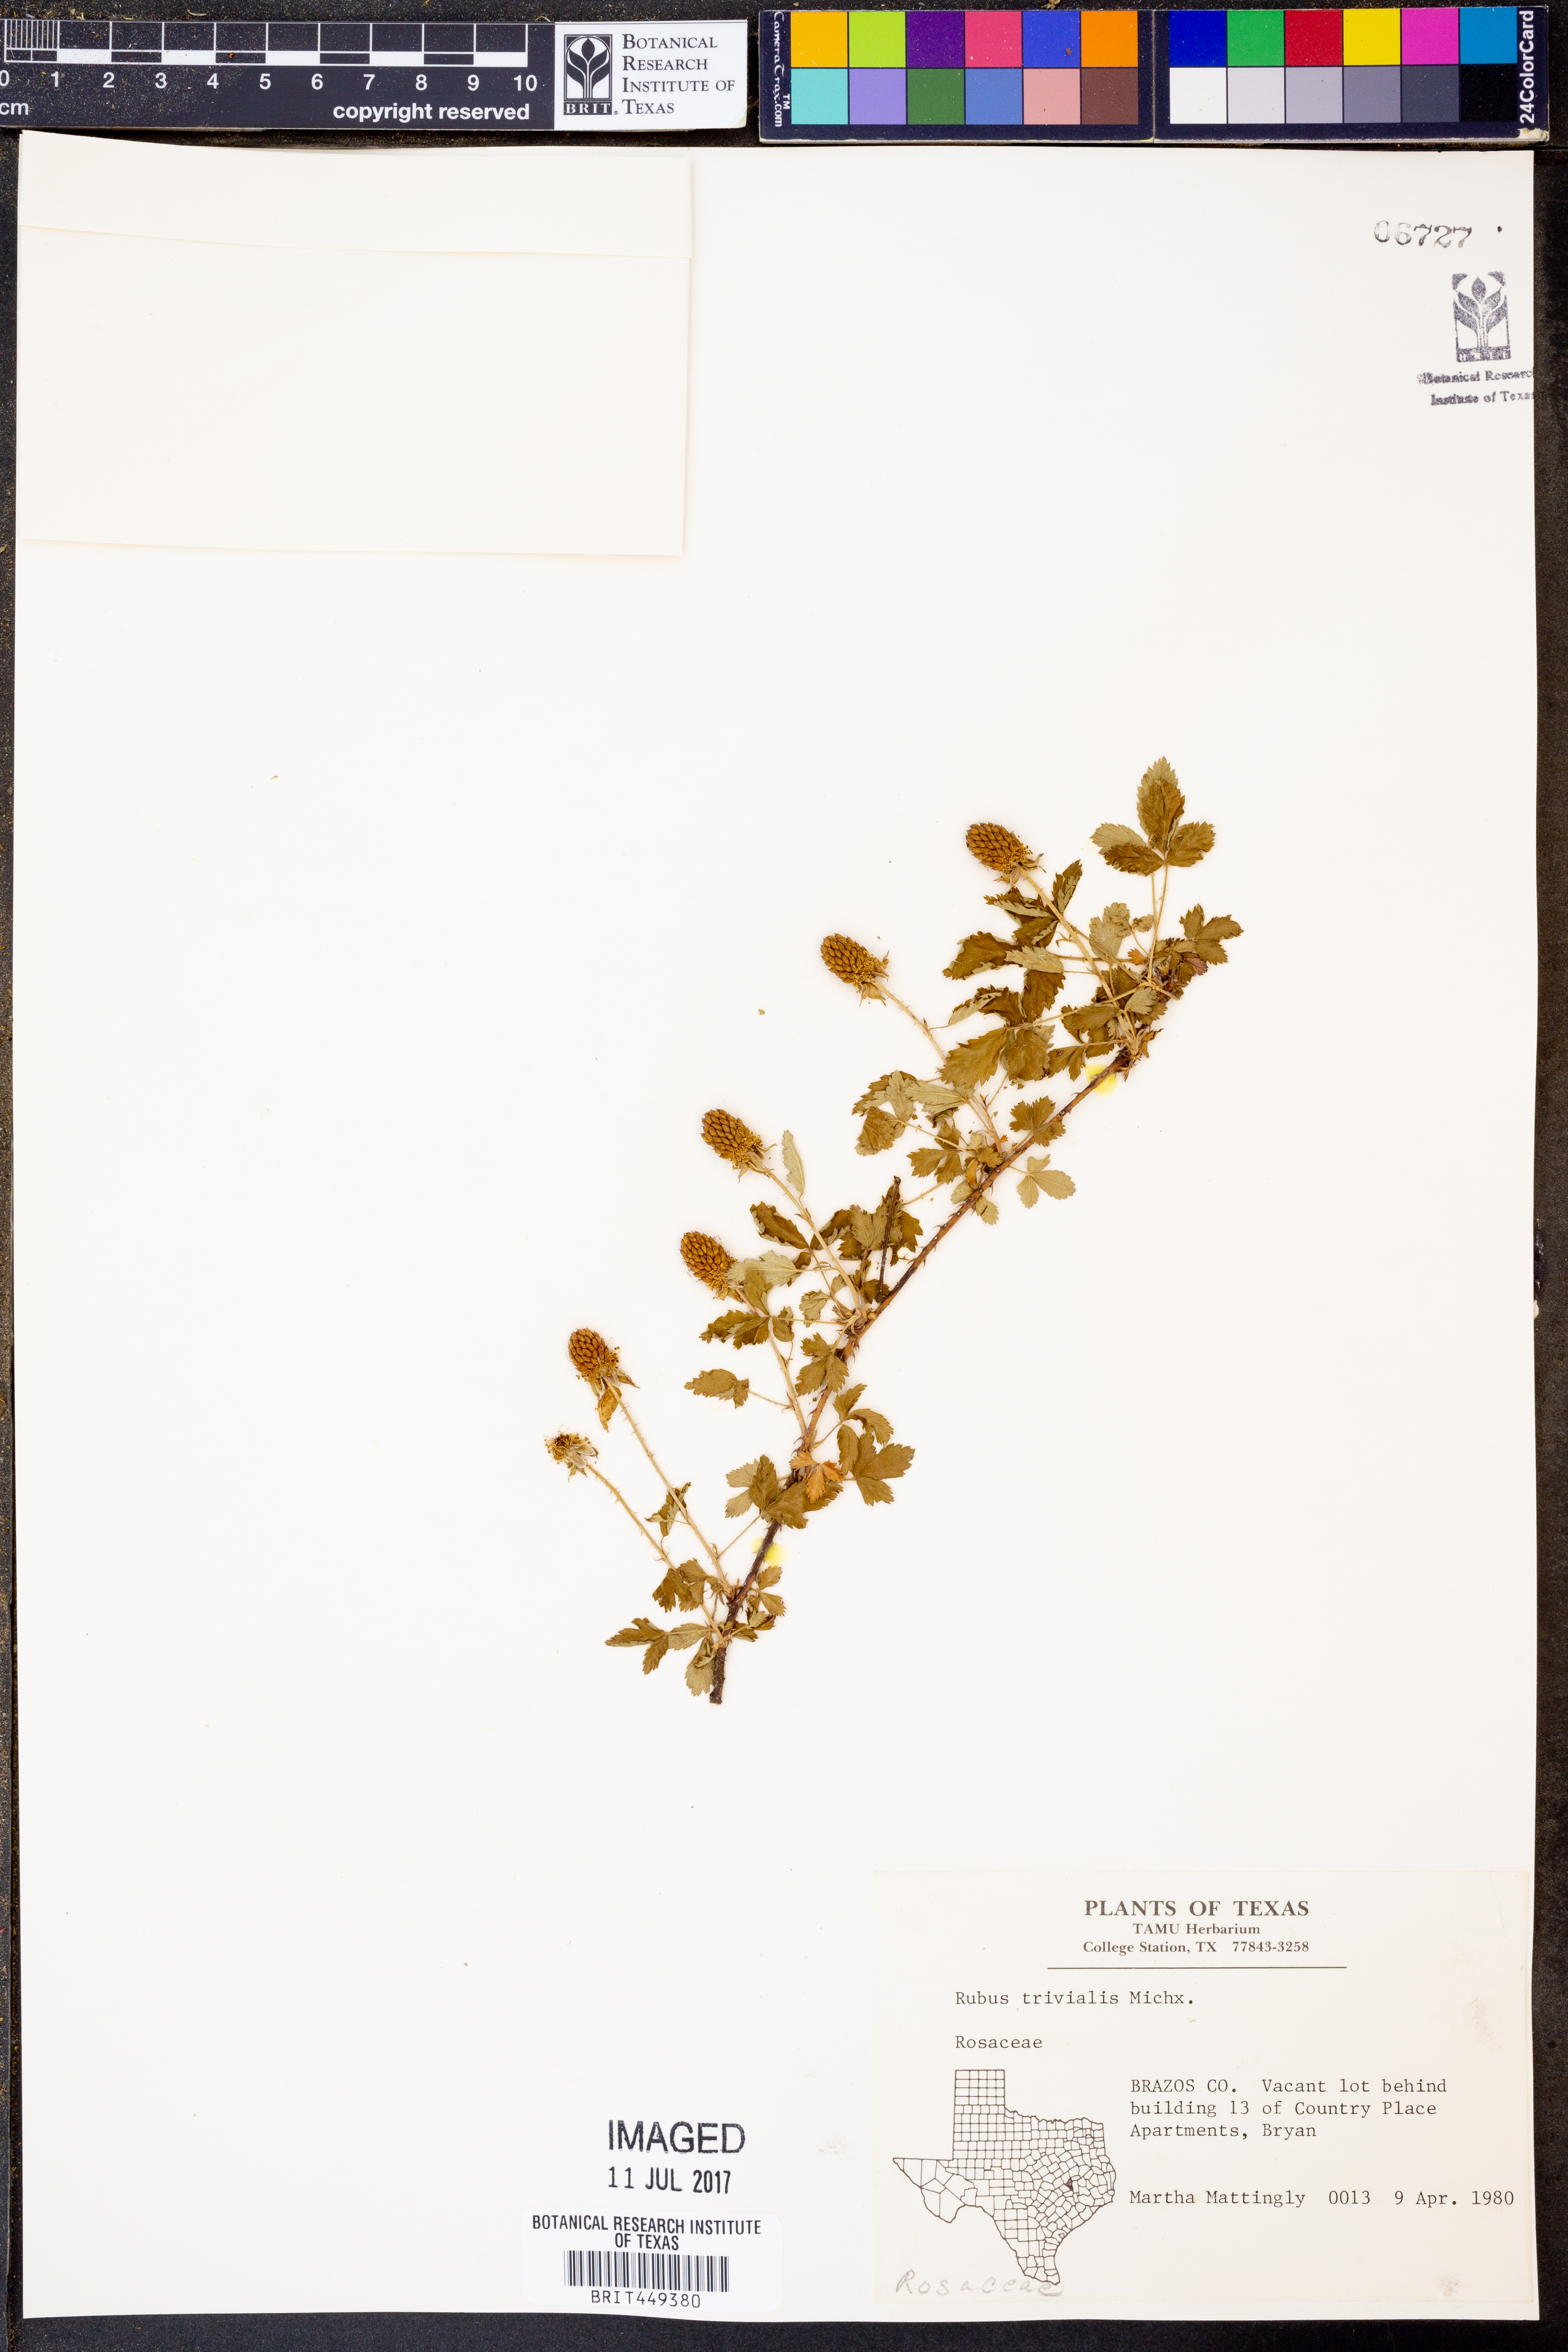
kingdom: Plantae
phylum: Tracheophyta
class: Magnoliopsida
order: Rosales
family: Rosaceae
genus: Rubus
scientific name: Rubus trivialis
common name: Southern dewberry
